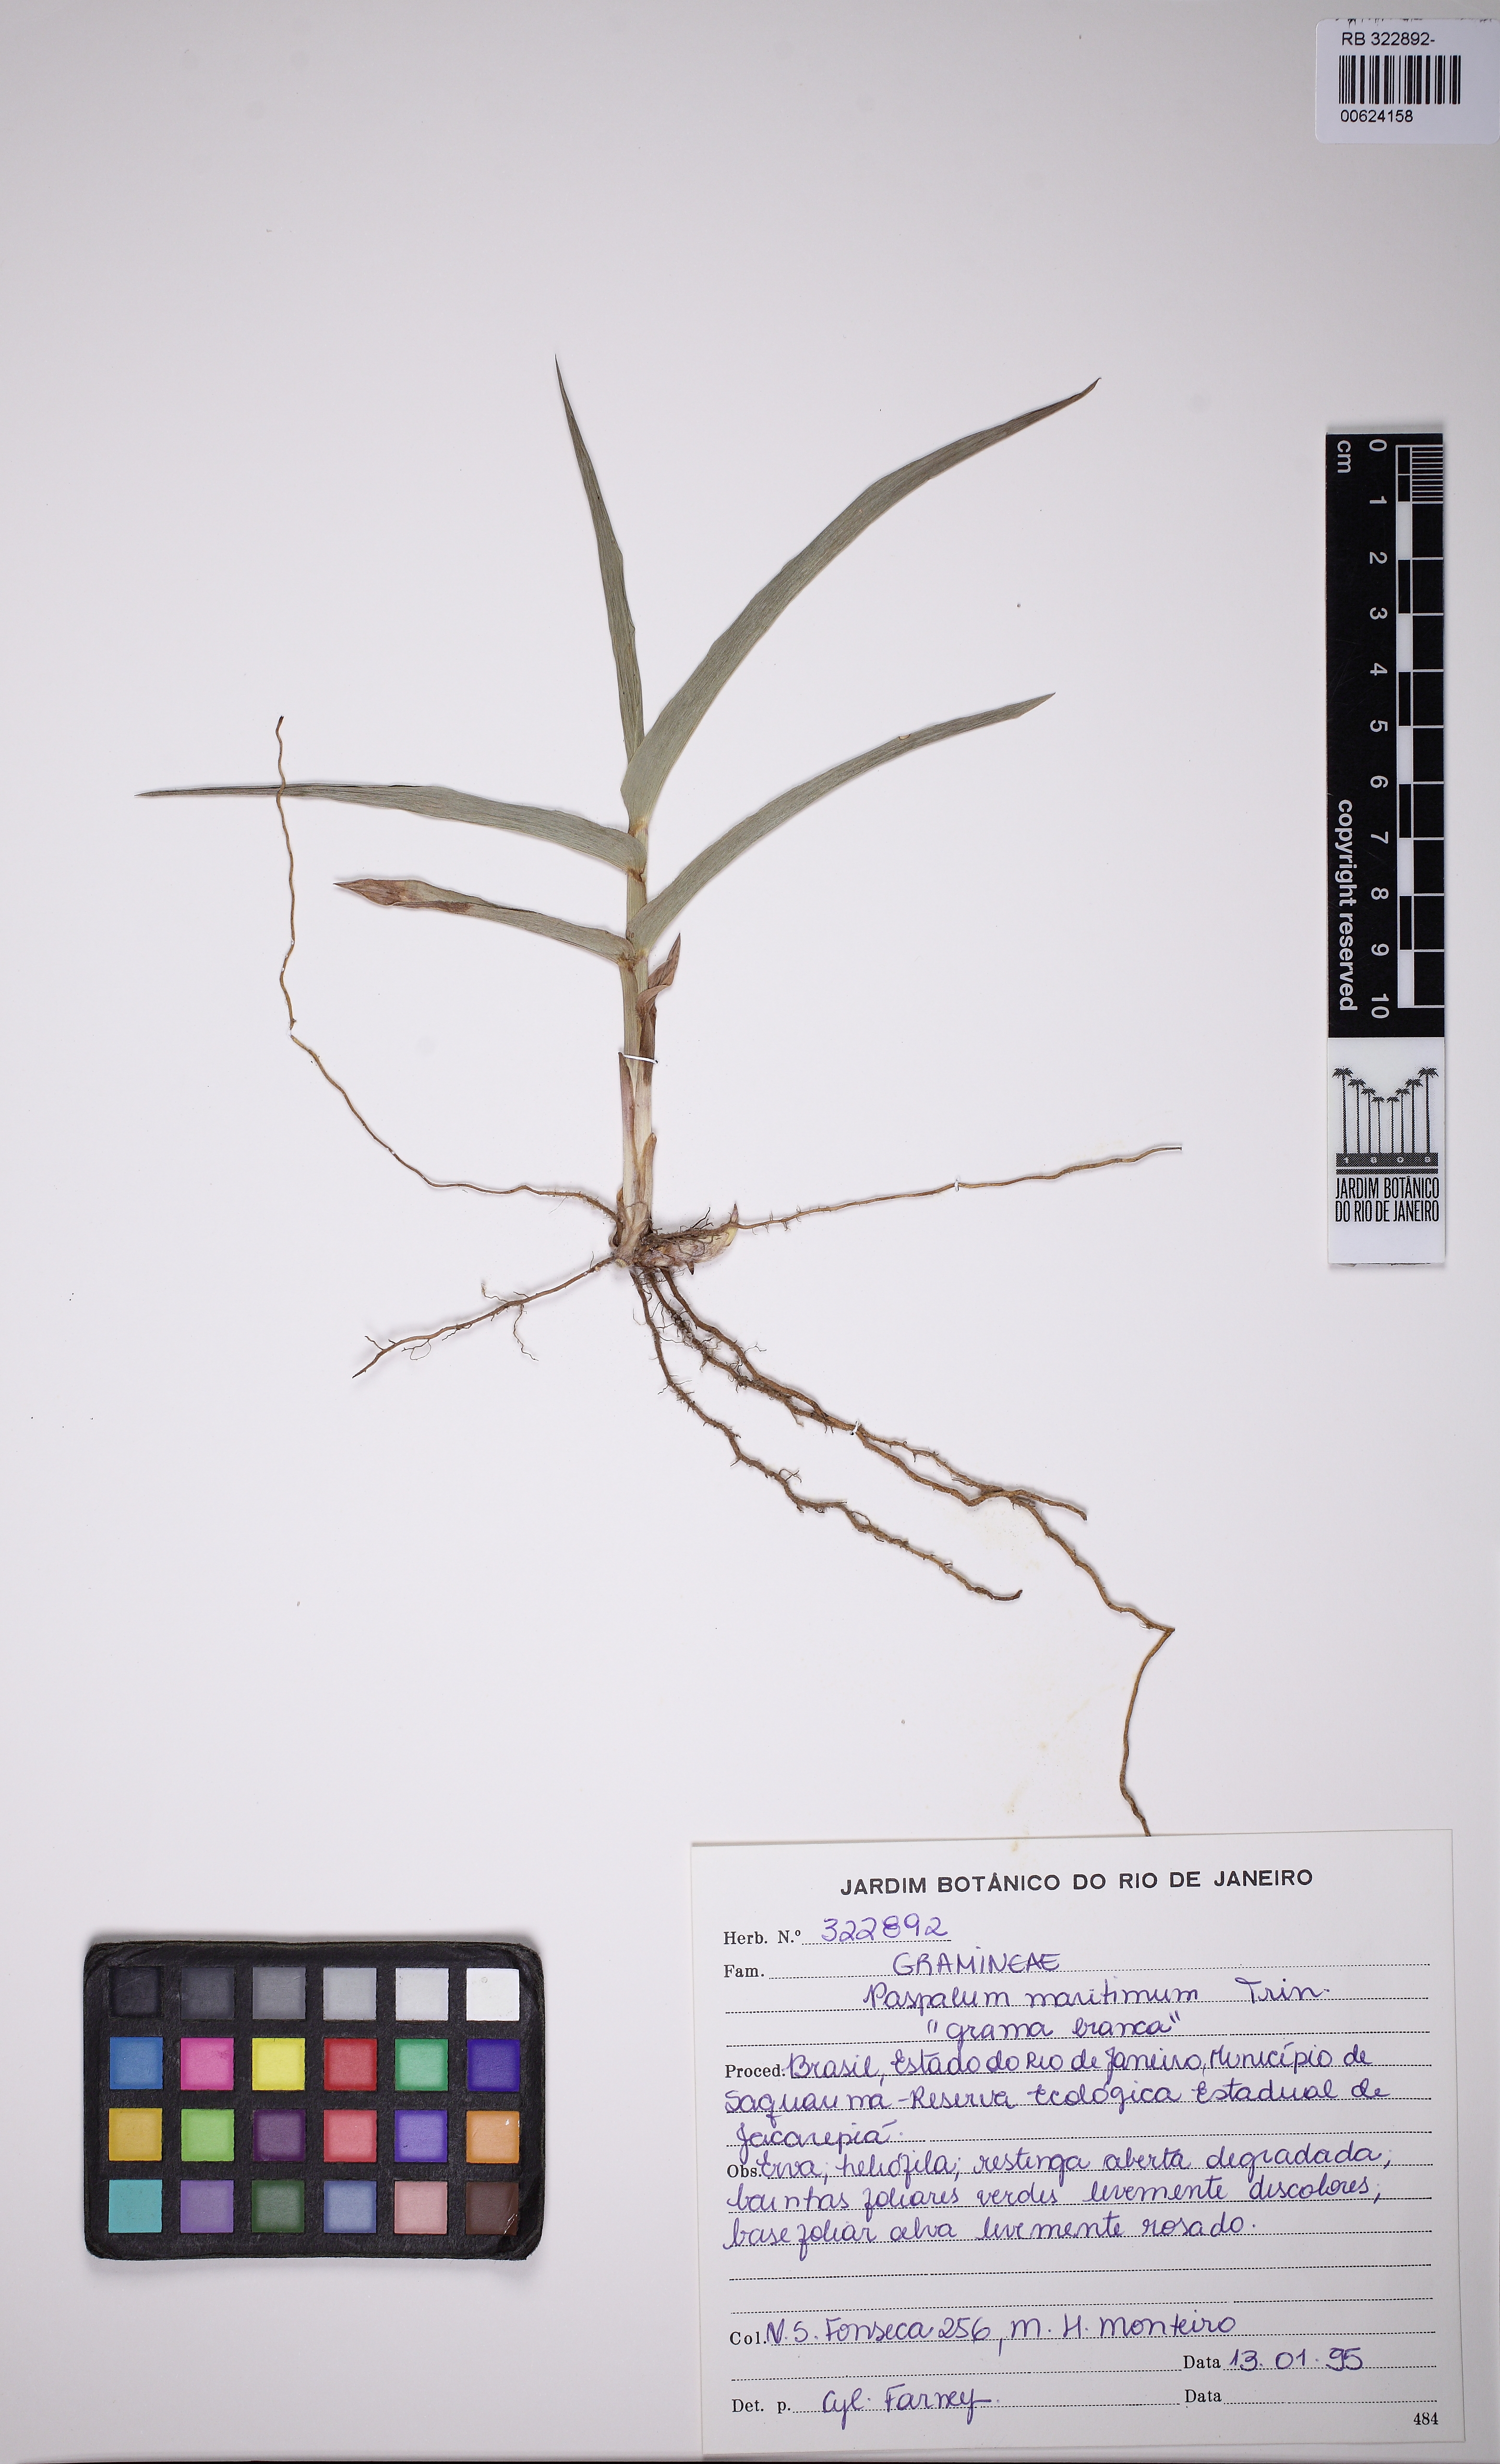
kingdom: Plantae
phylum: Tracheophyta
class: Liliopsida
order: Poales
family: Poaceae
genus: Paspalum
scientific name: Paspalum maritimum
